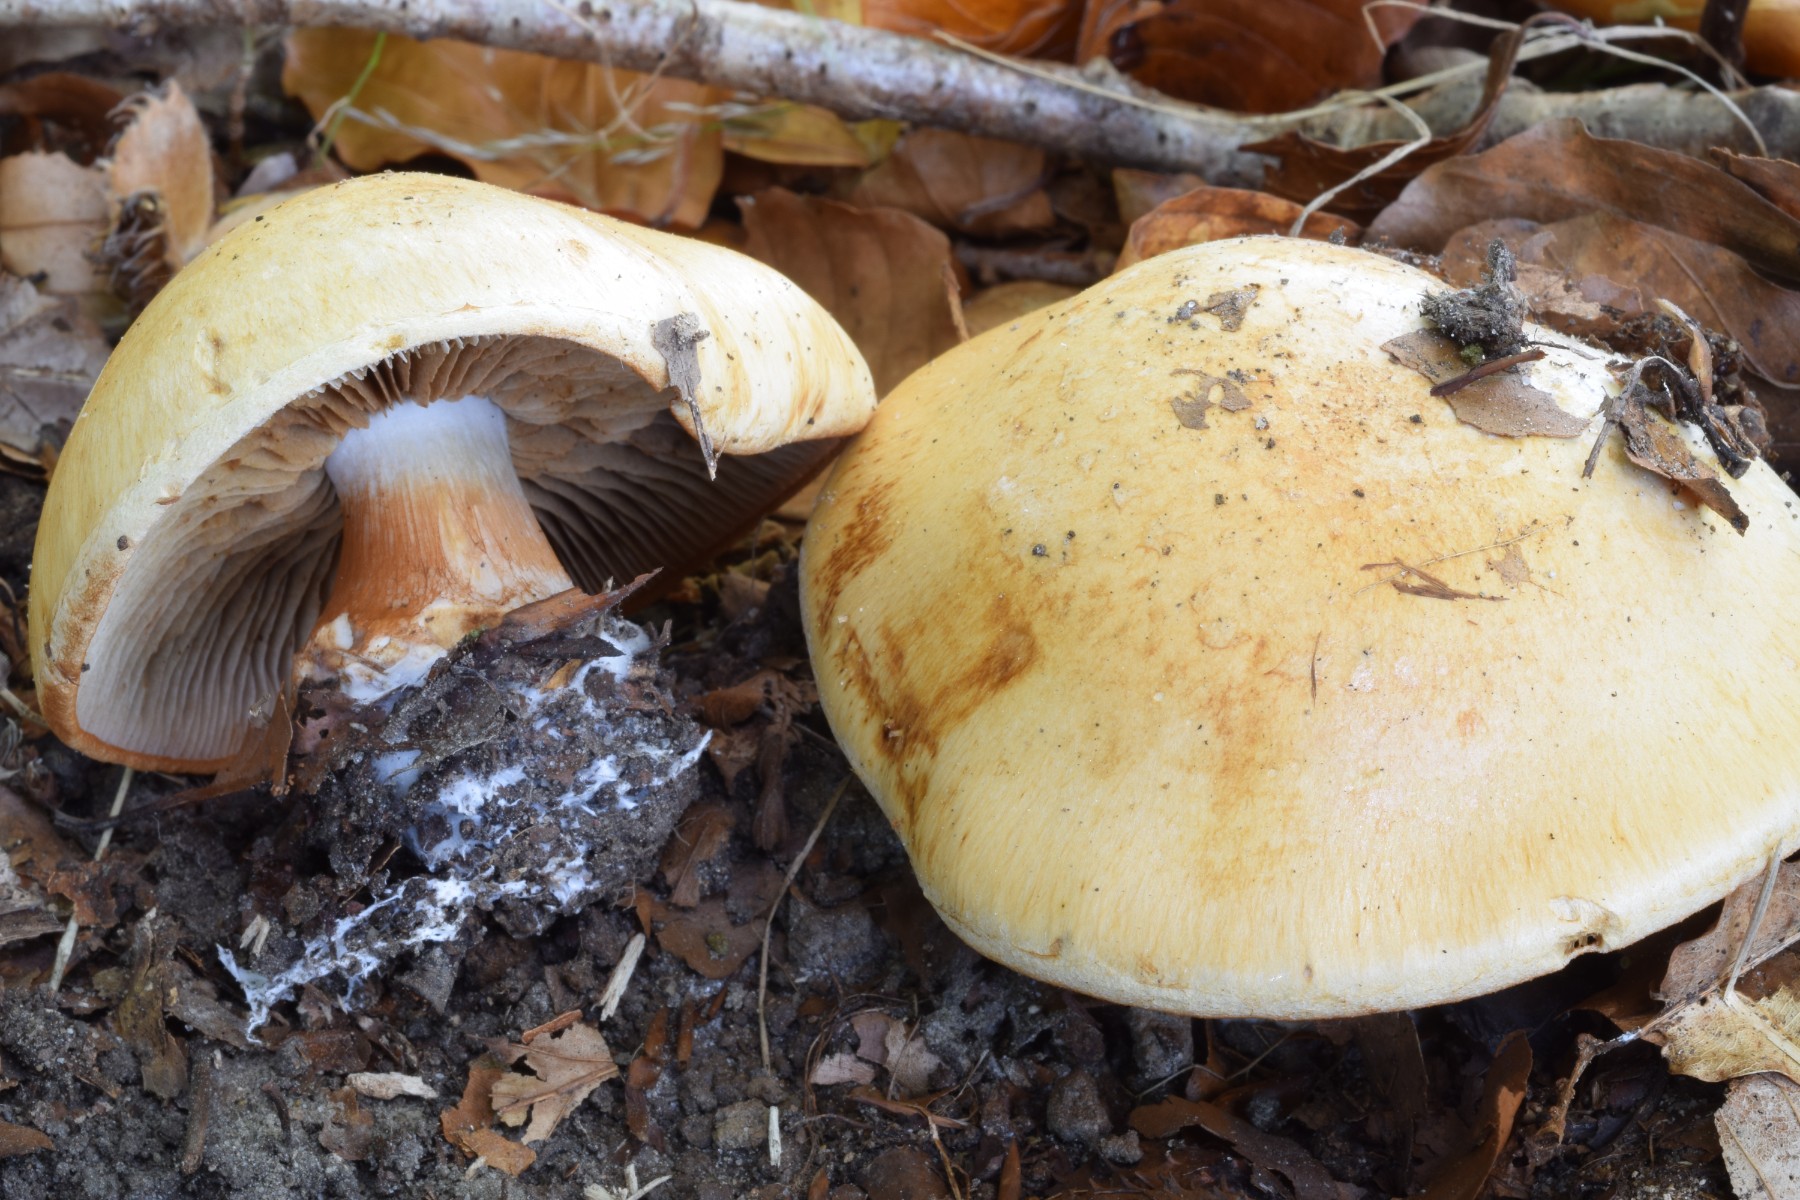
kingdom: Fungi
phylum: Basidiomycota
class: Agaricomycetes
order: Agaricales
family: Cortinariaceae
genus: Calonarius
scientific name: Calonarius rapaceotomentosus
